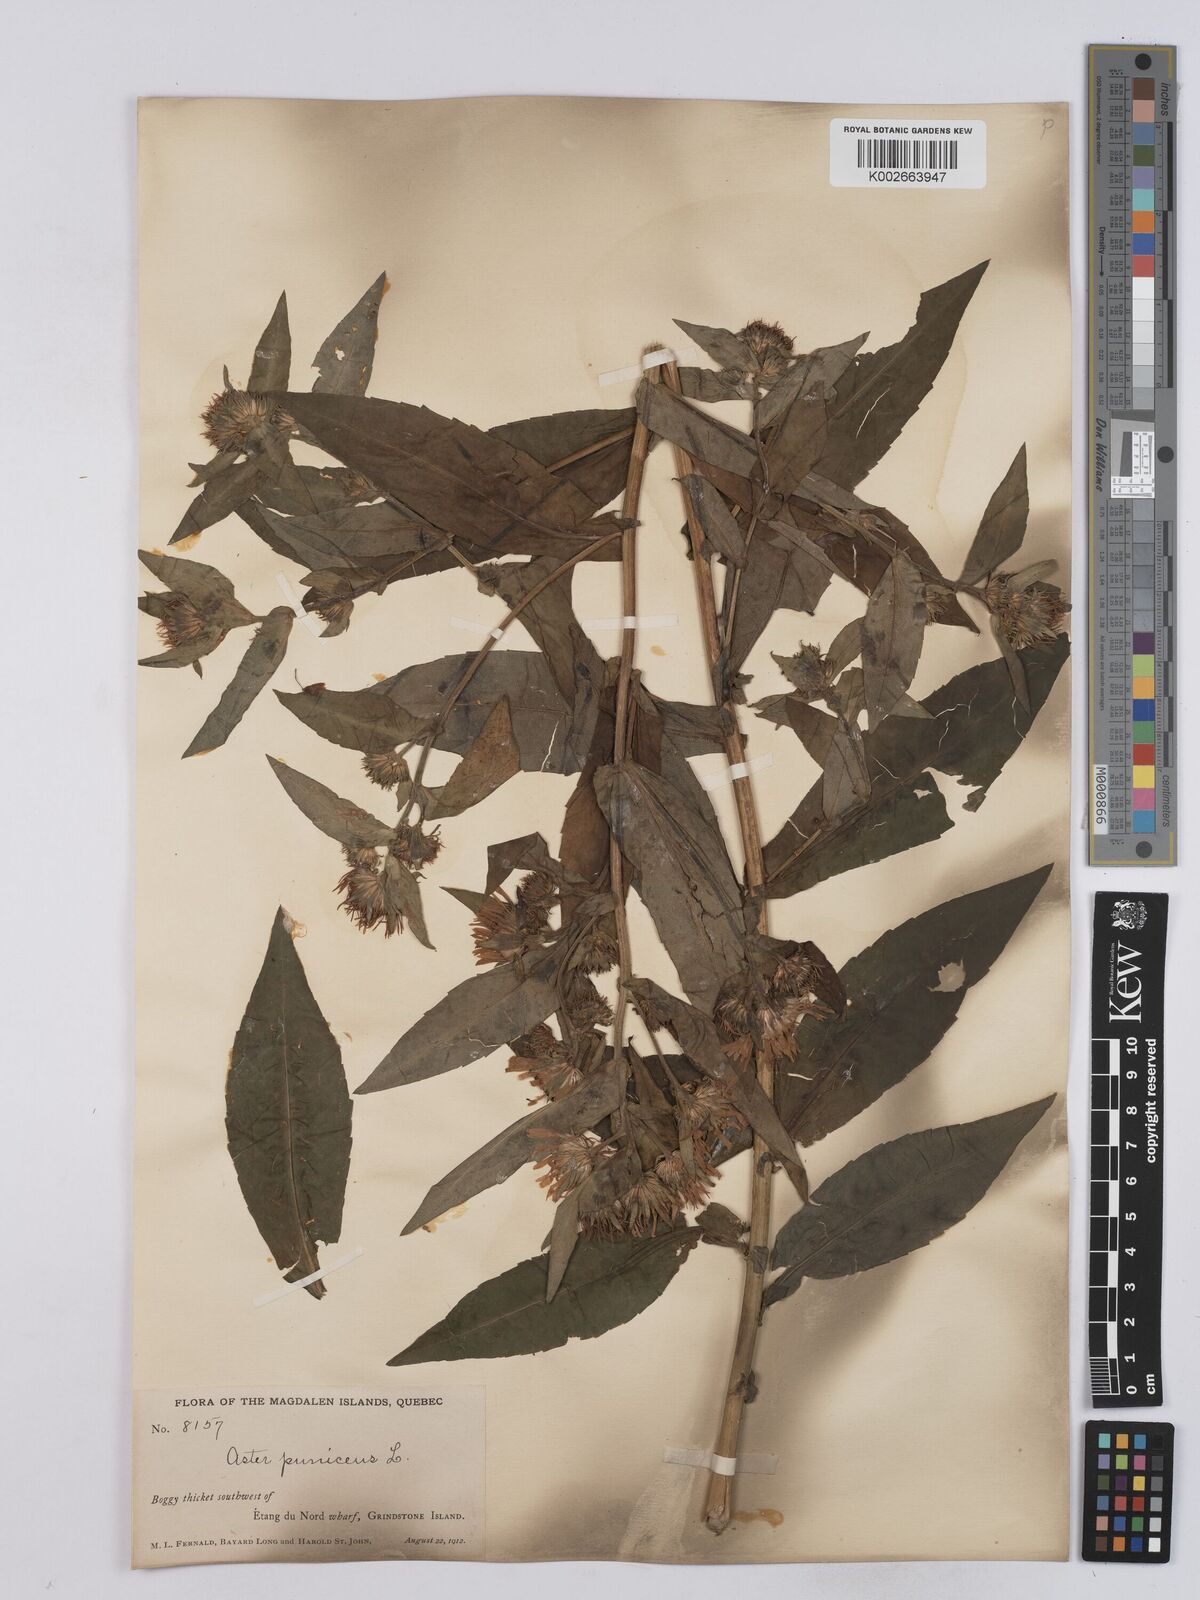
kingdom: Plantae
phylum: Tracheophyta
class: Magnoliopsida
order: Asterales
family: Asteraceae
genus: Symphyotrichum
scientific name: Symphyotrichum puniceum
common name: Bog aster
